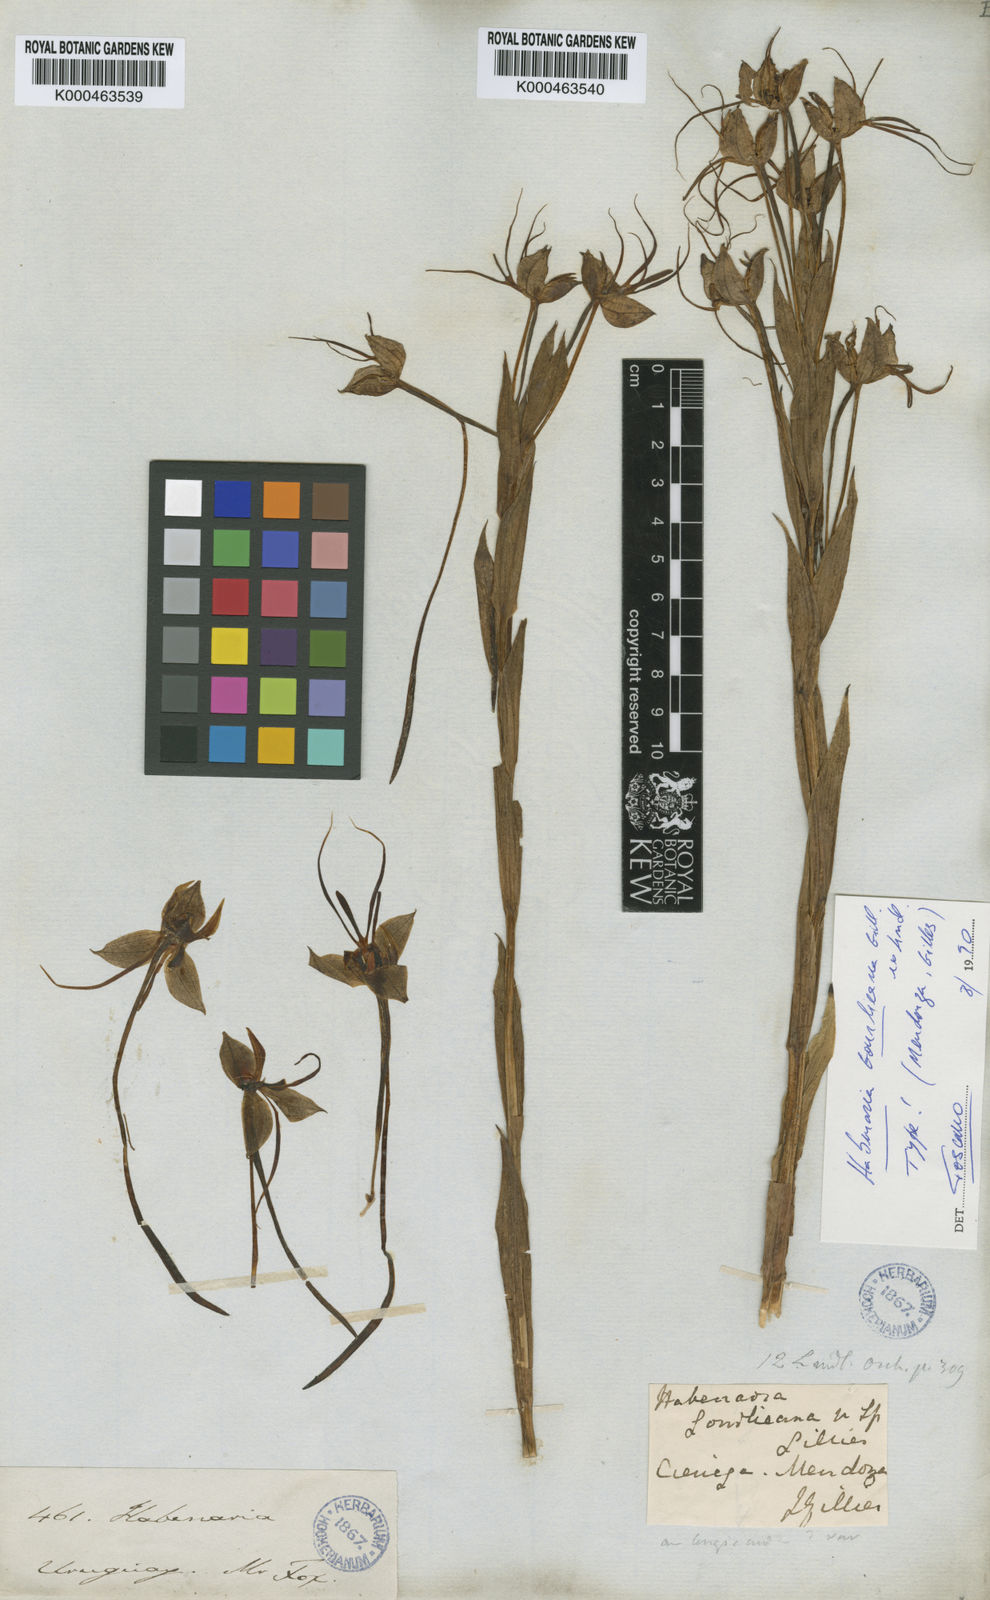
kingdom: Plantae
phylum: Tracheophyta
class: Liliopsida
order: Asparagales
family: Orchidaceae
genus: Habenaria
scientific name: Habenaria gourlieana
